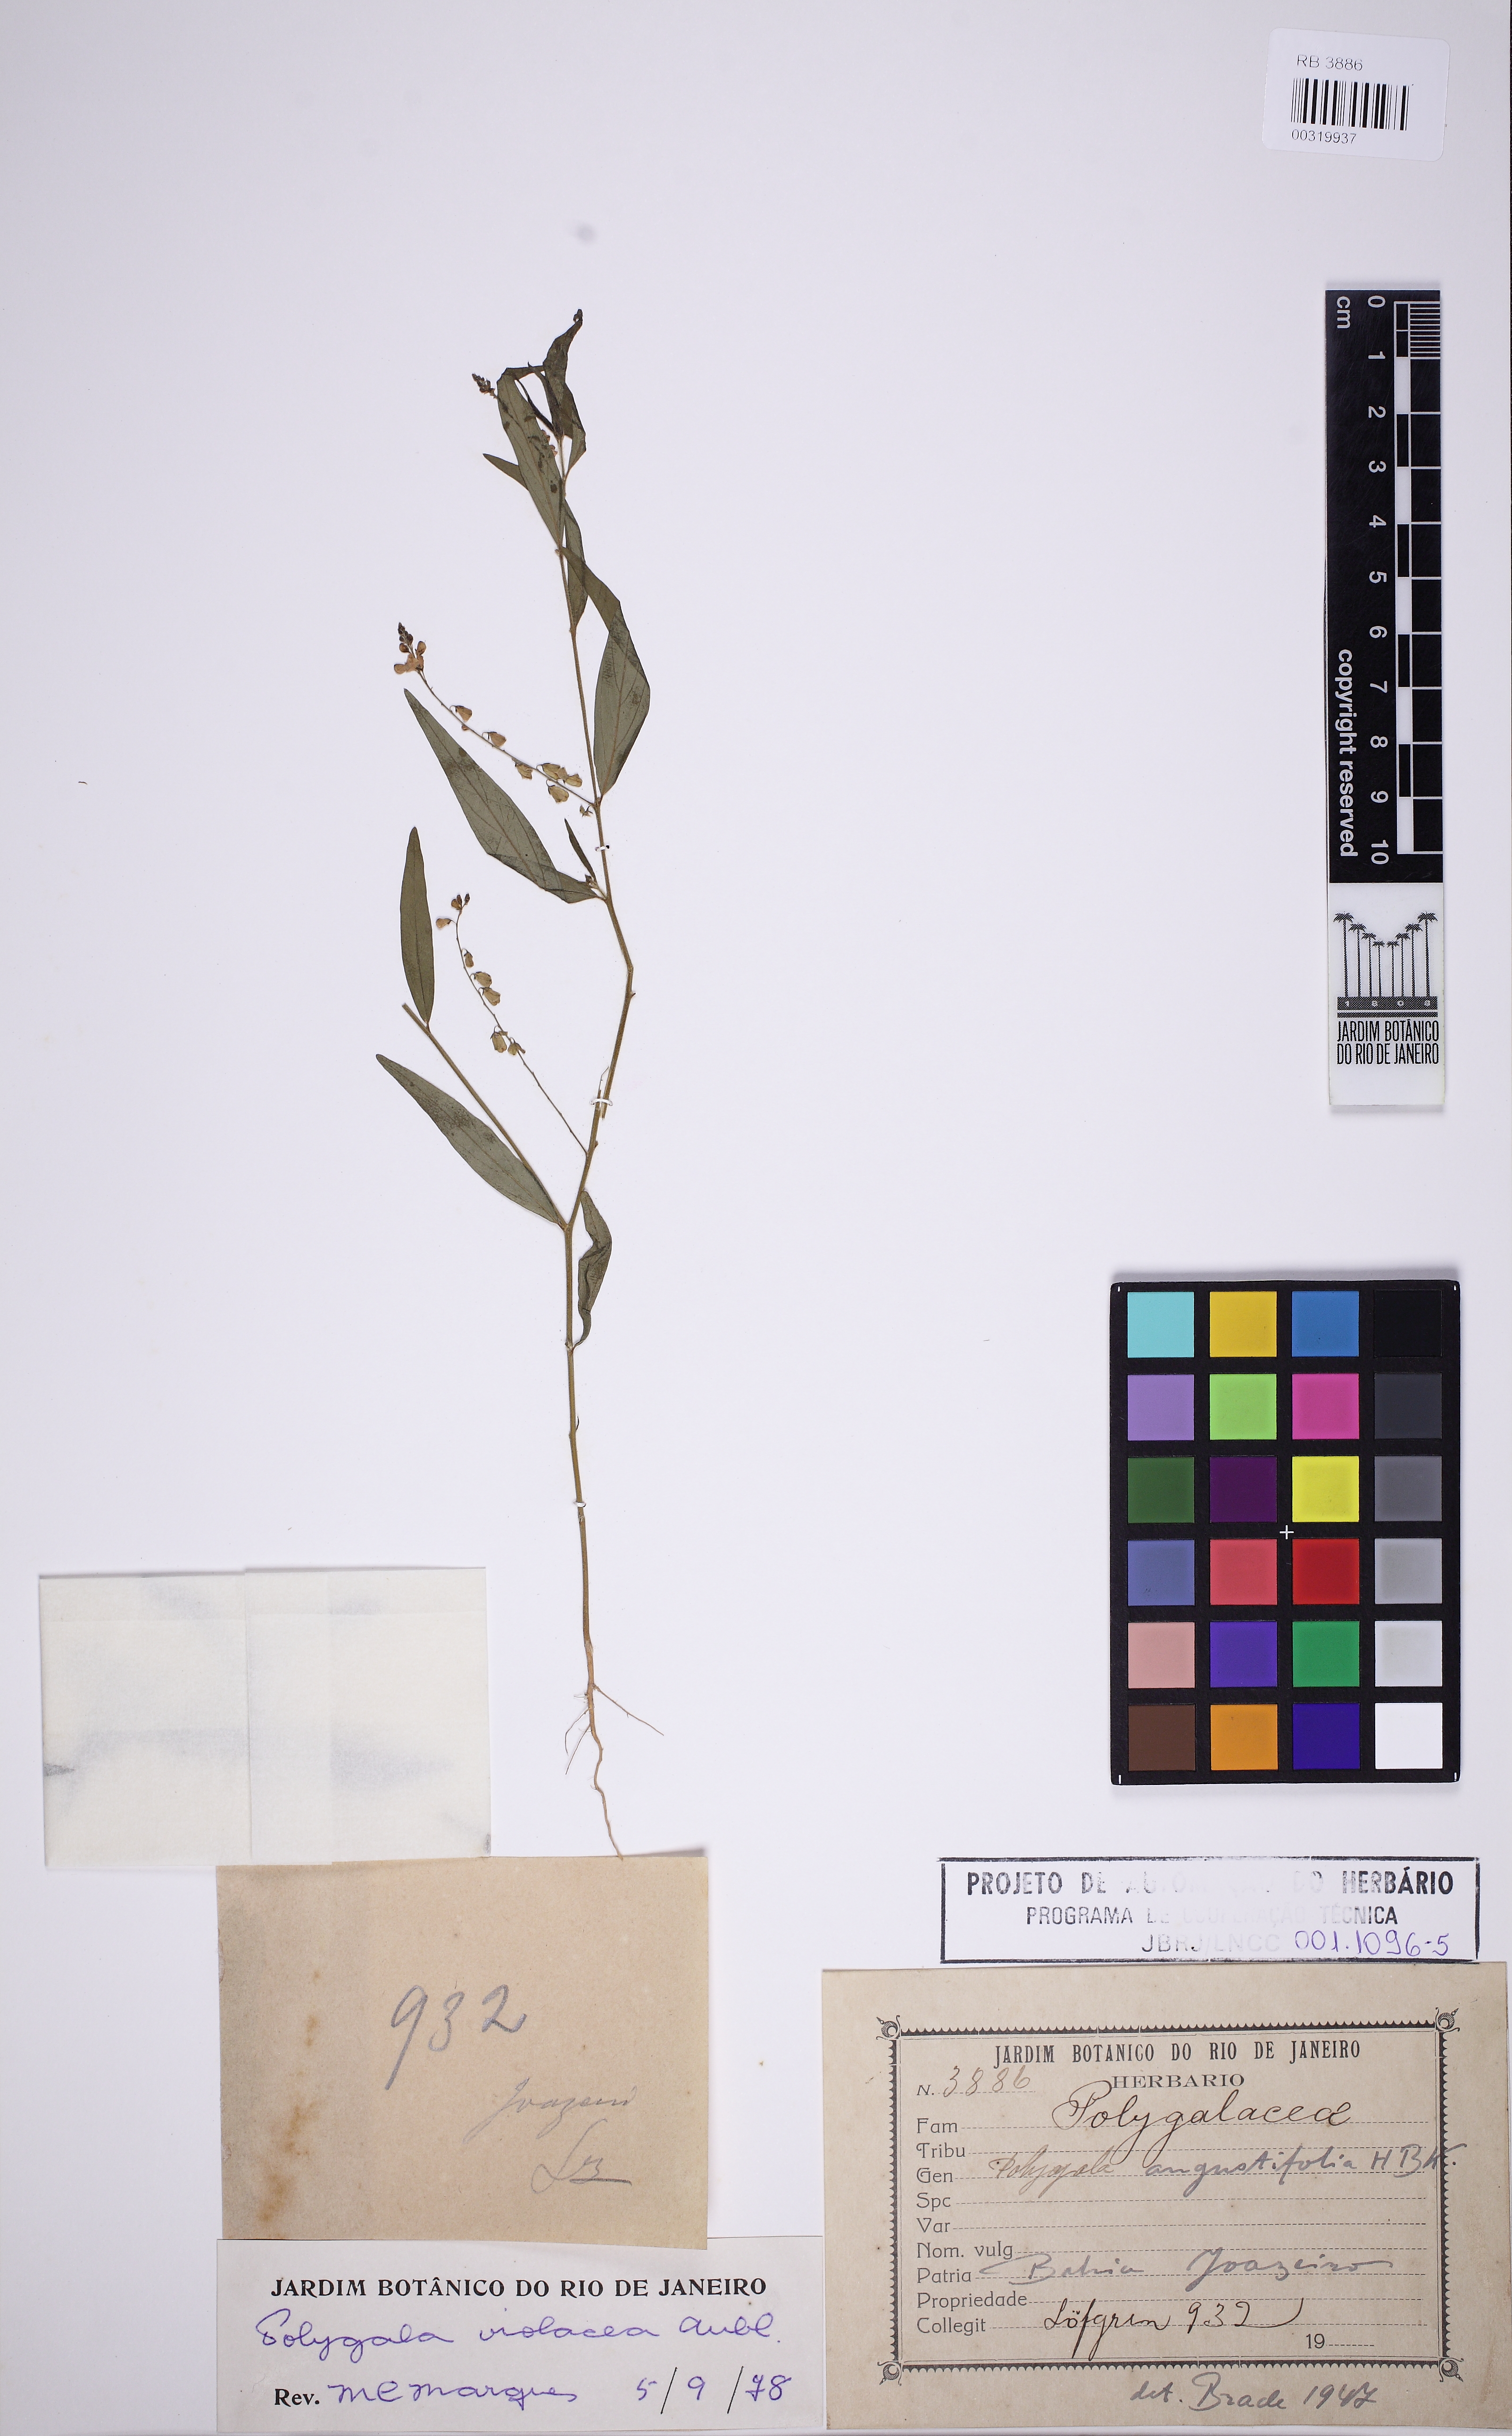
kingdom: Plantae
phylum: Tracheophyta
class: Magnoliopsida
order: Fabales
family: Polygalaceae
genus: Asemeia
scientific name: Asemeia violacea
